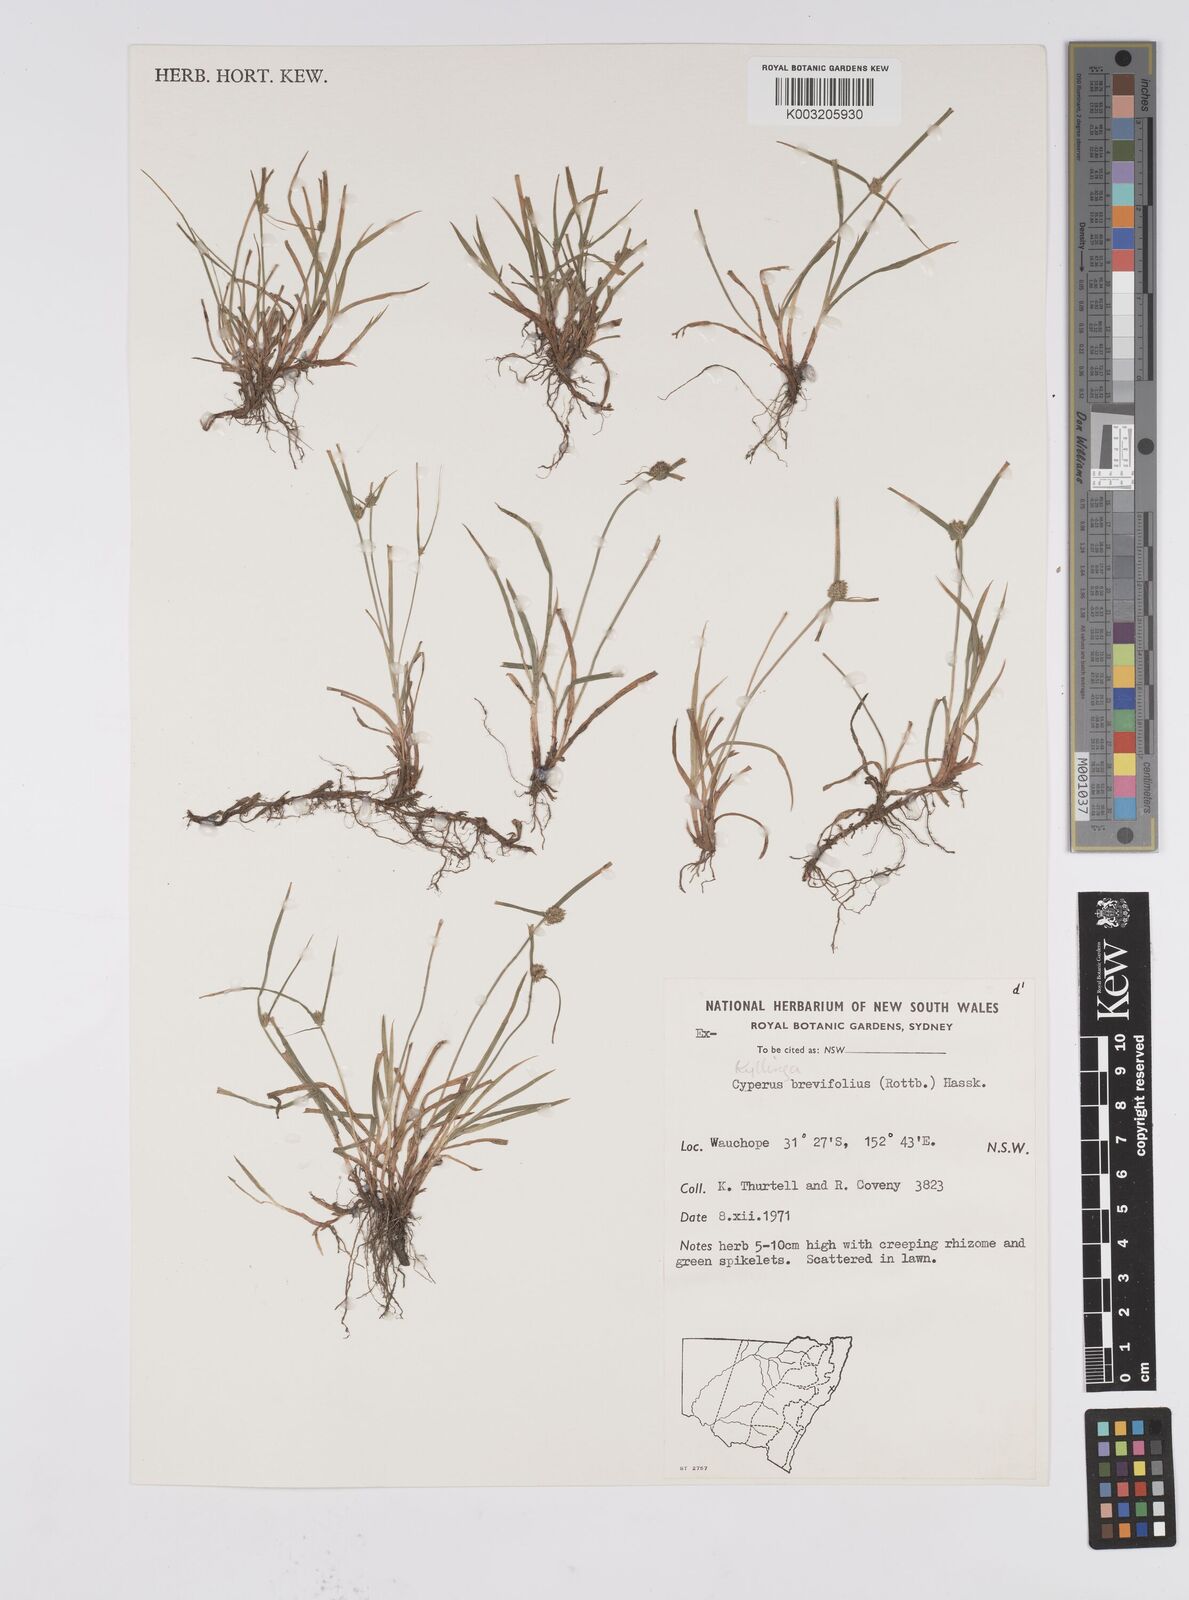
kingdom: Plantae
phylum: Tracheophyta
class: Liliopsida
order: Poales
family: Cyperaceae
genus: Cyperus
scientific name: Cyperus brevifolius
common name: Globe kyllinga
